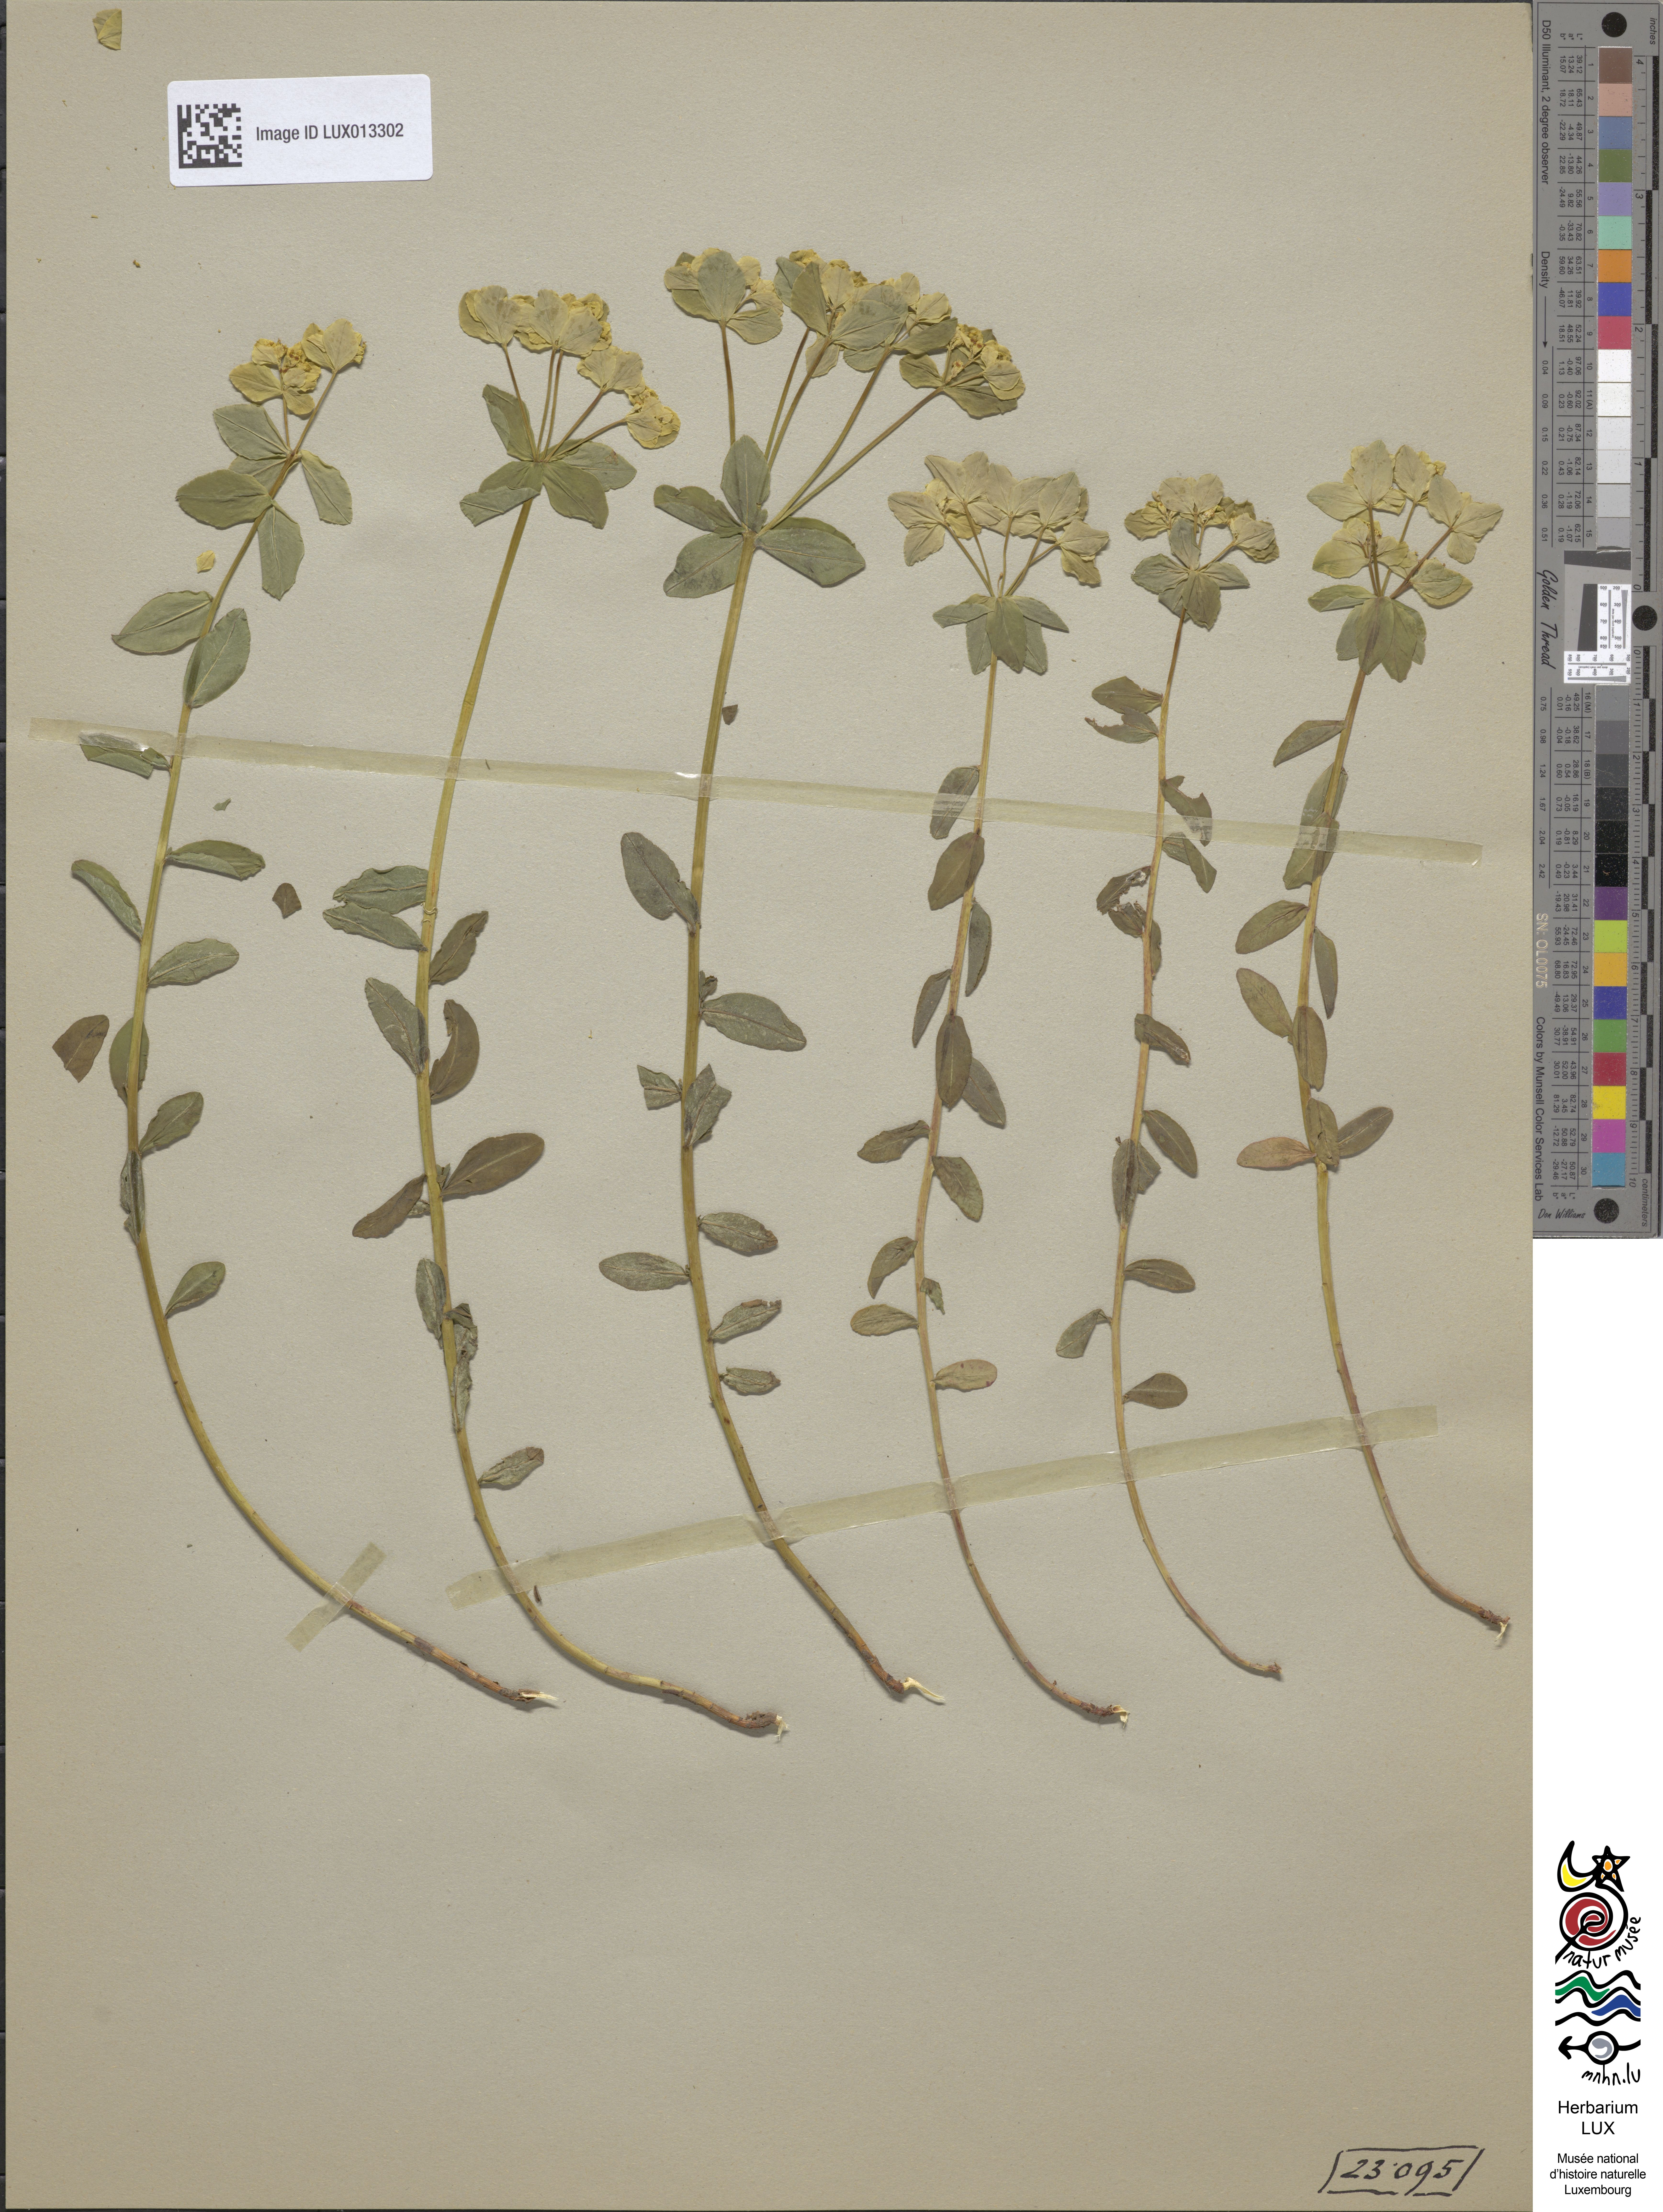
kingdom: Plantae
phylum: Tracheophyta
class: Magnoliopsida
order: Malpighiales
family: Euphorbiaceae
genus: Euphorbia
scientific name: Euphorbia verrucosa
